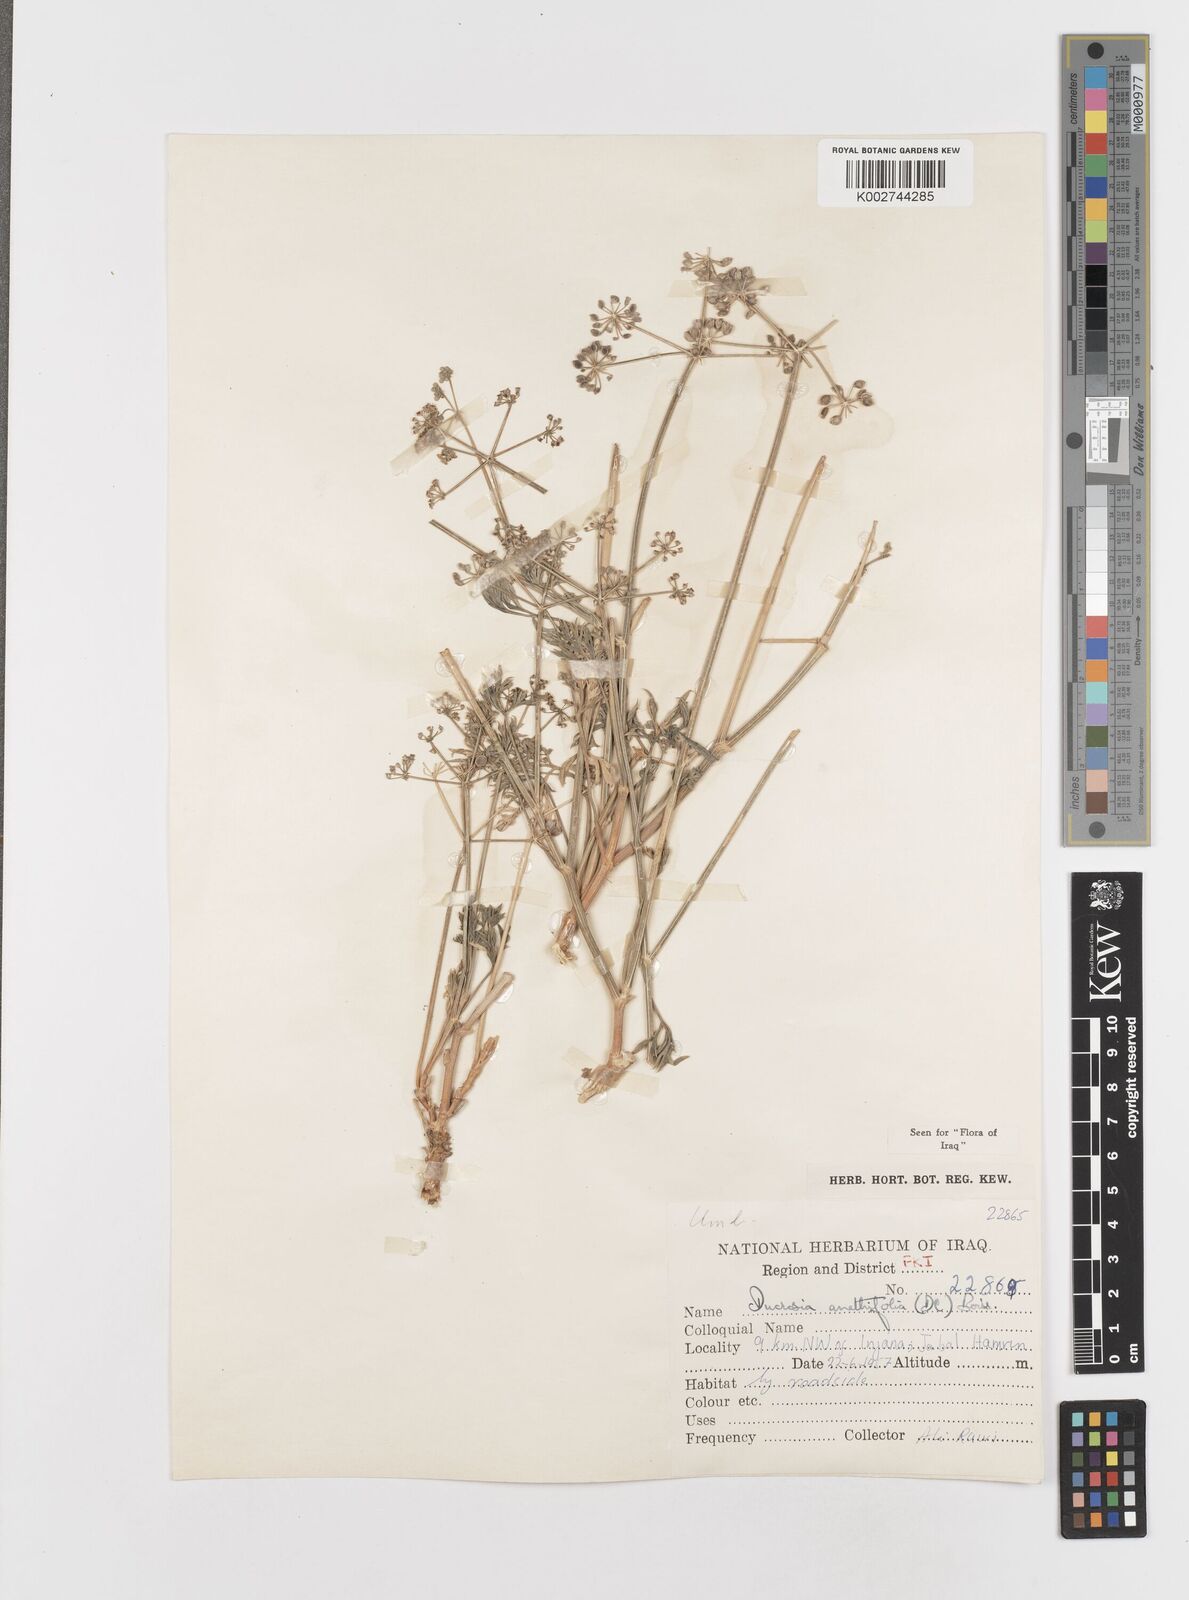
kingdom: Plantae
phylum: Tracheophyta
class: Magnoliopsida
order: Apiales
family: Apiaceae
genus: Ducrosia
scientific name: Ducrosia anethifolia
